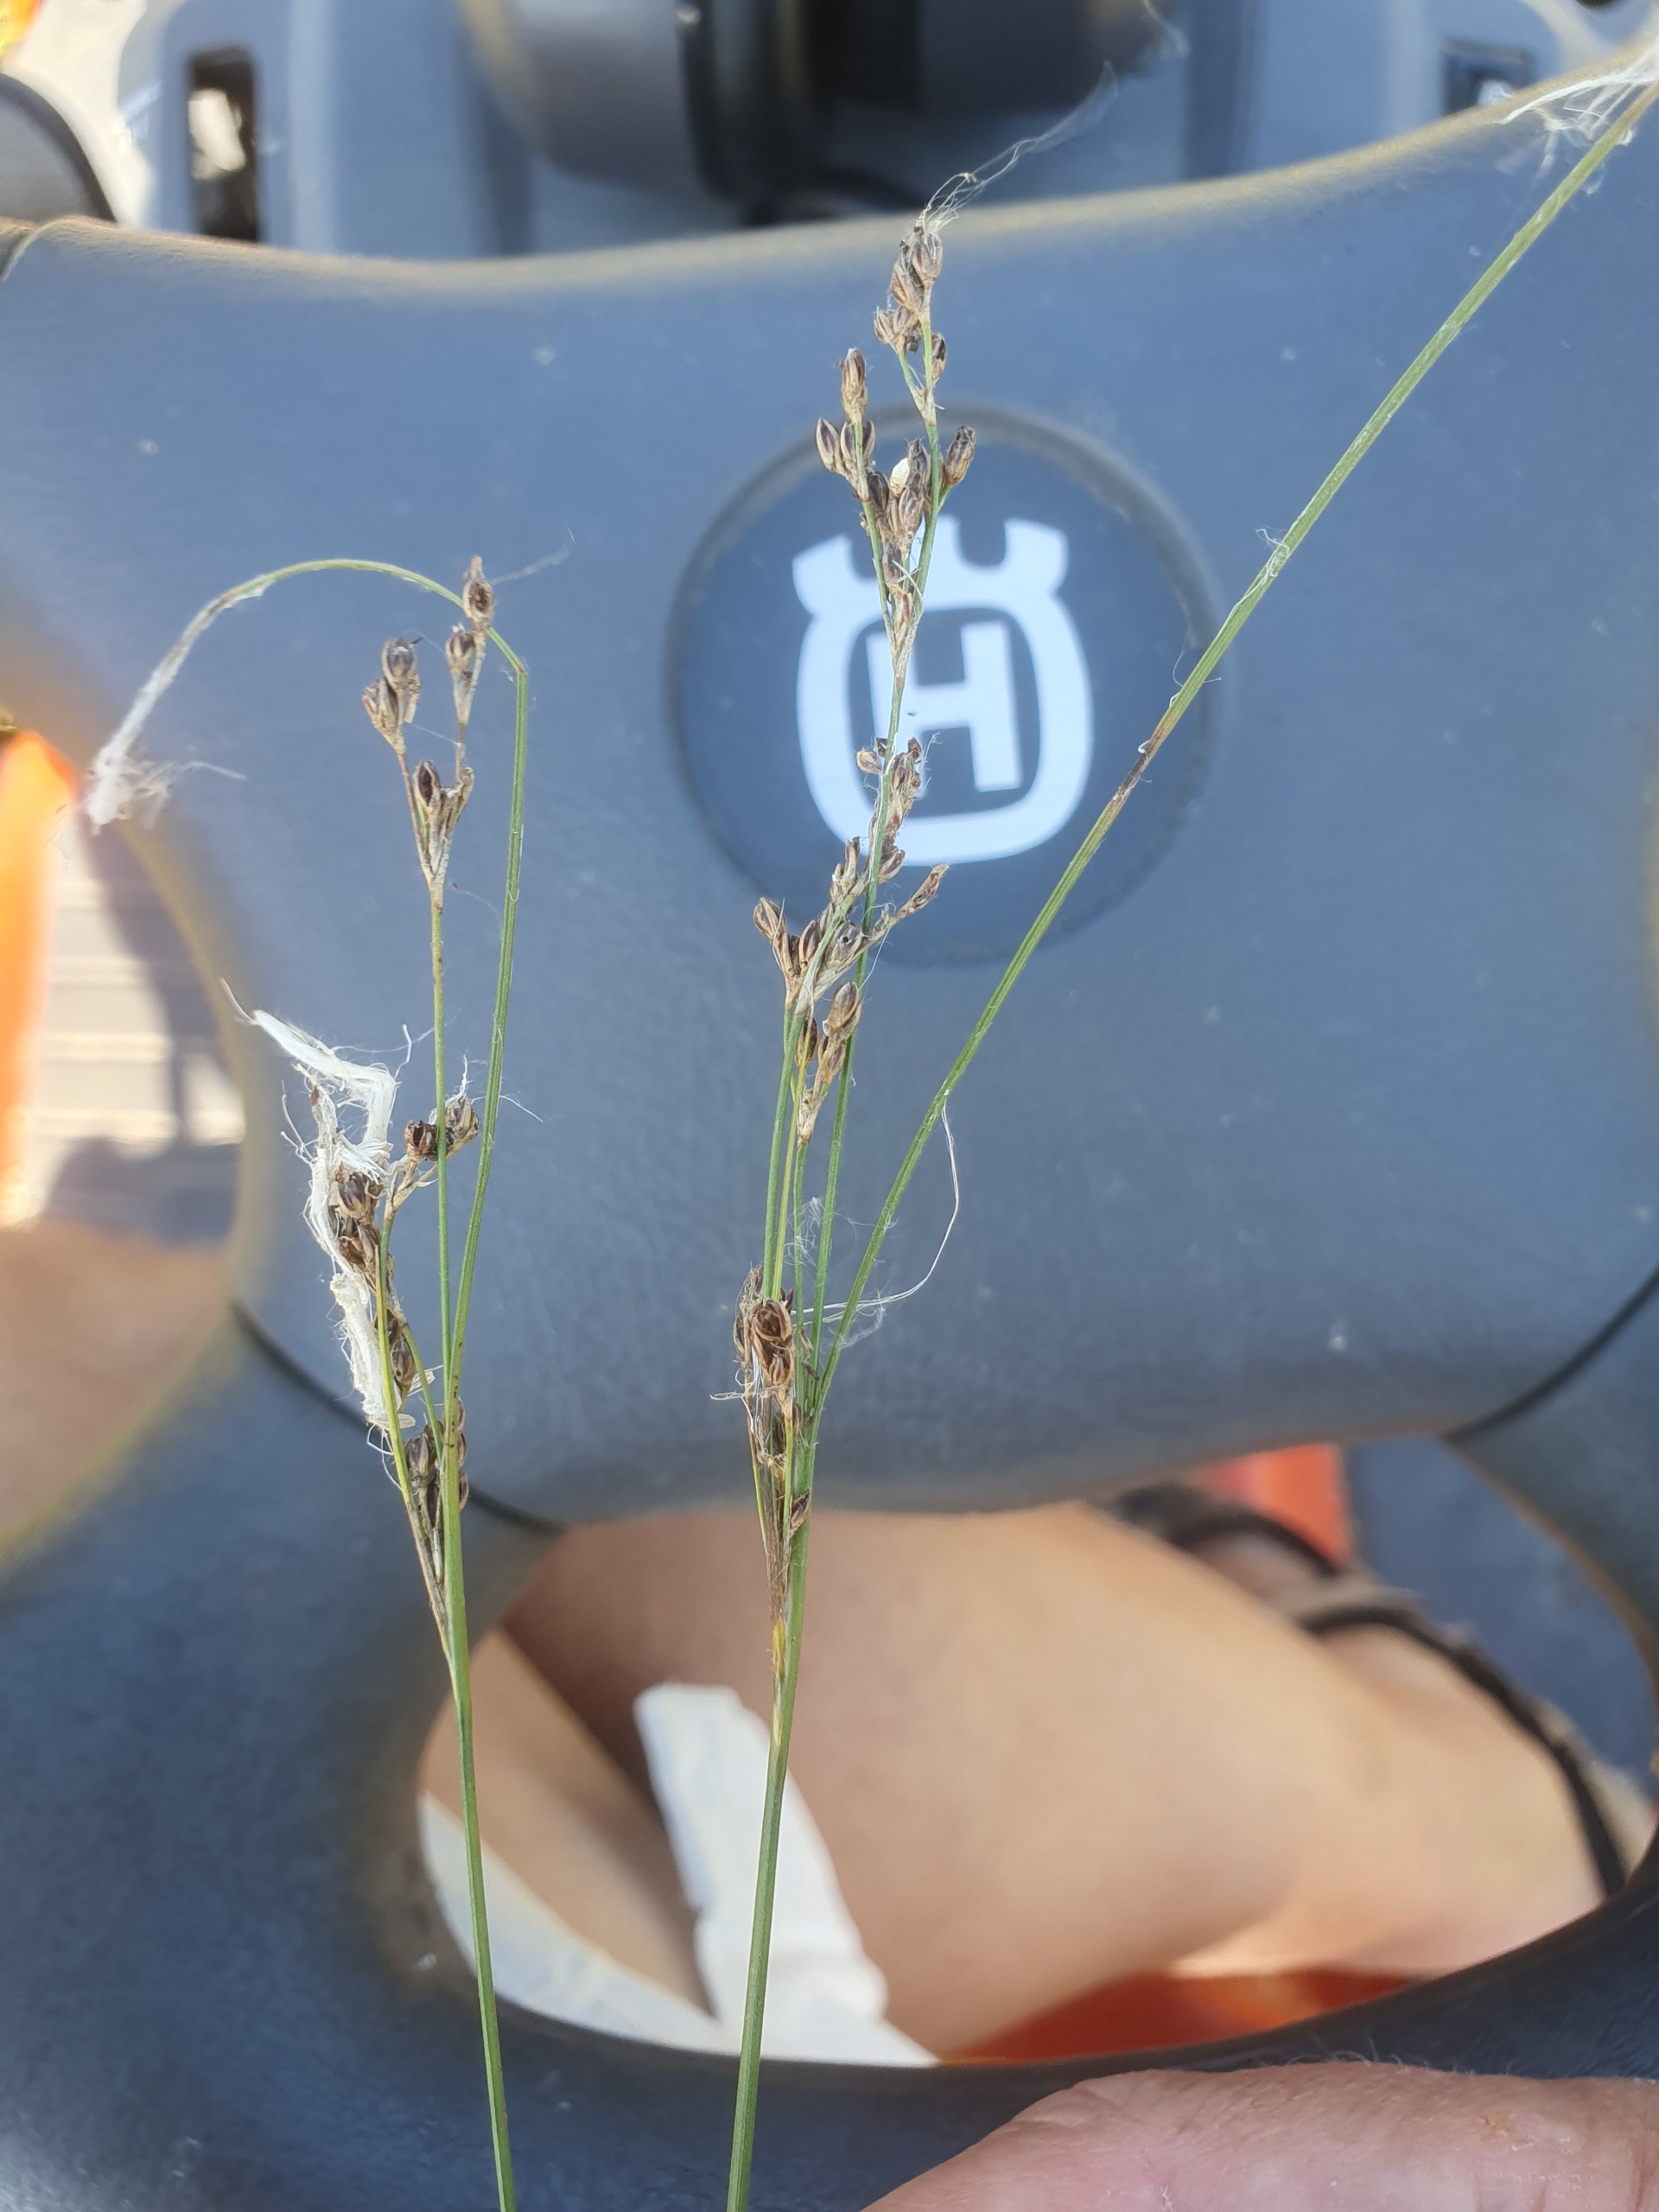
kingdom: Plantae
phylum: Tracheophyta
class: Liliopsida
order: Poales
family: Juncaceae
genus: Juncus
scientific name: Juncus gerardi
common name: Harril
